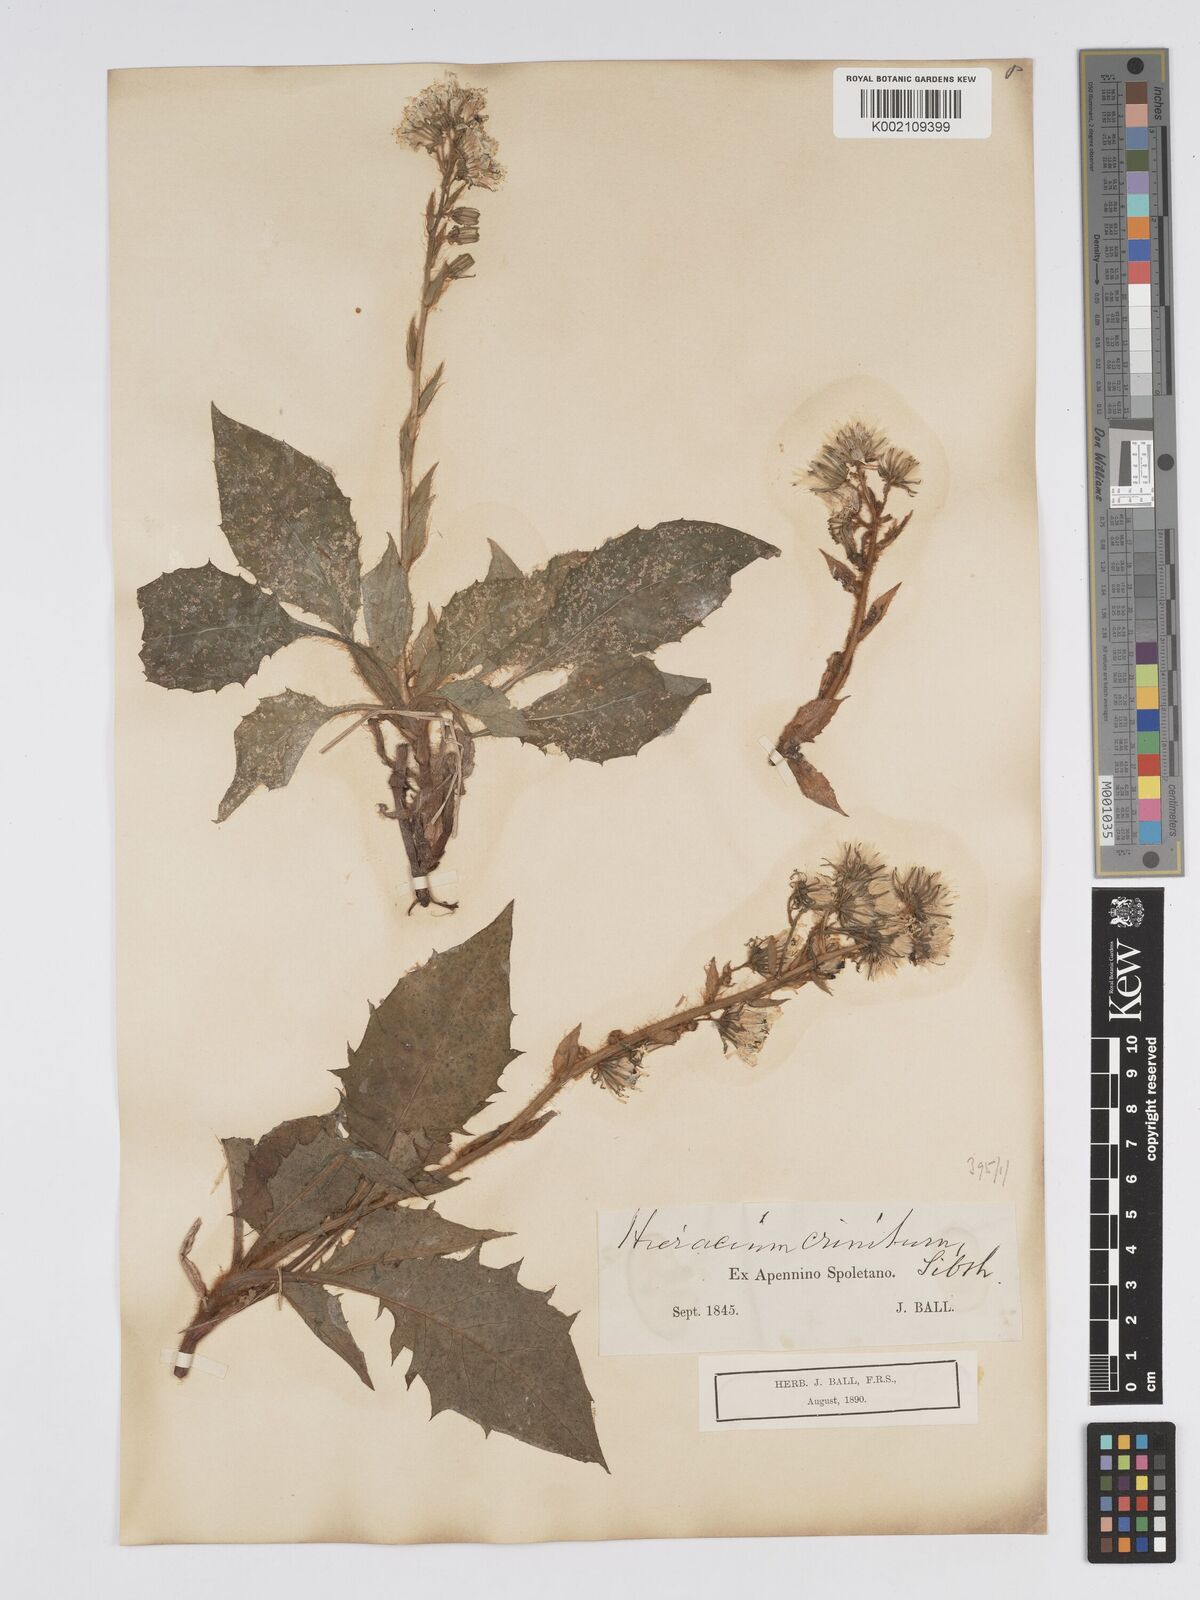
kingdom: Plantae
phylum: Tracheophyta
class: Magnoliopsida
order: Asterales
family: Asteraceae
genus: Hieracium
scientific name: Hieracium racemosum
